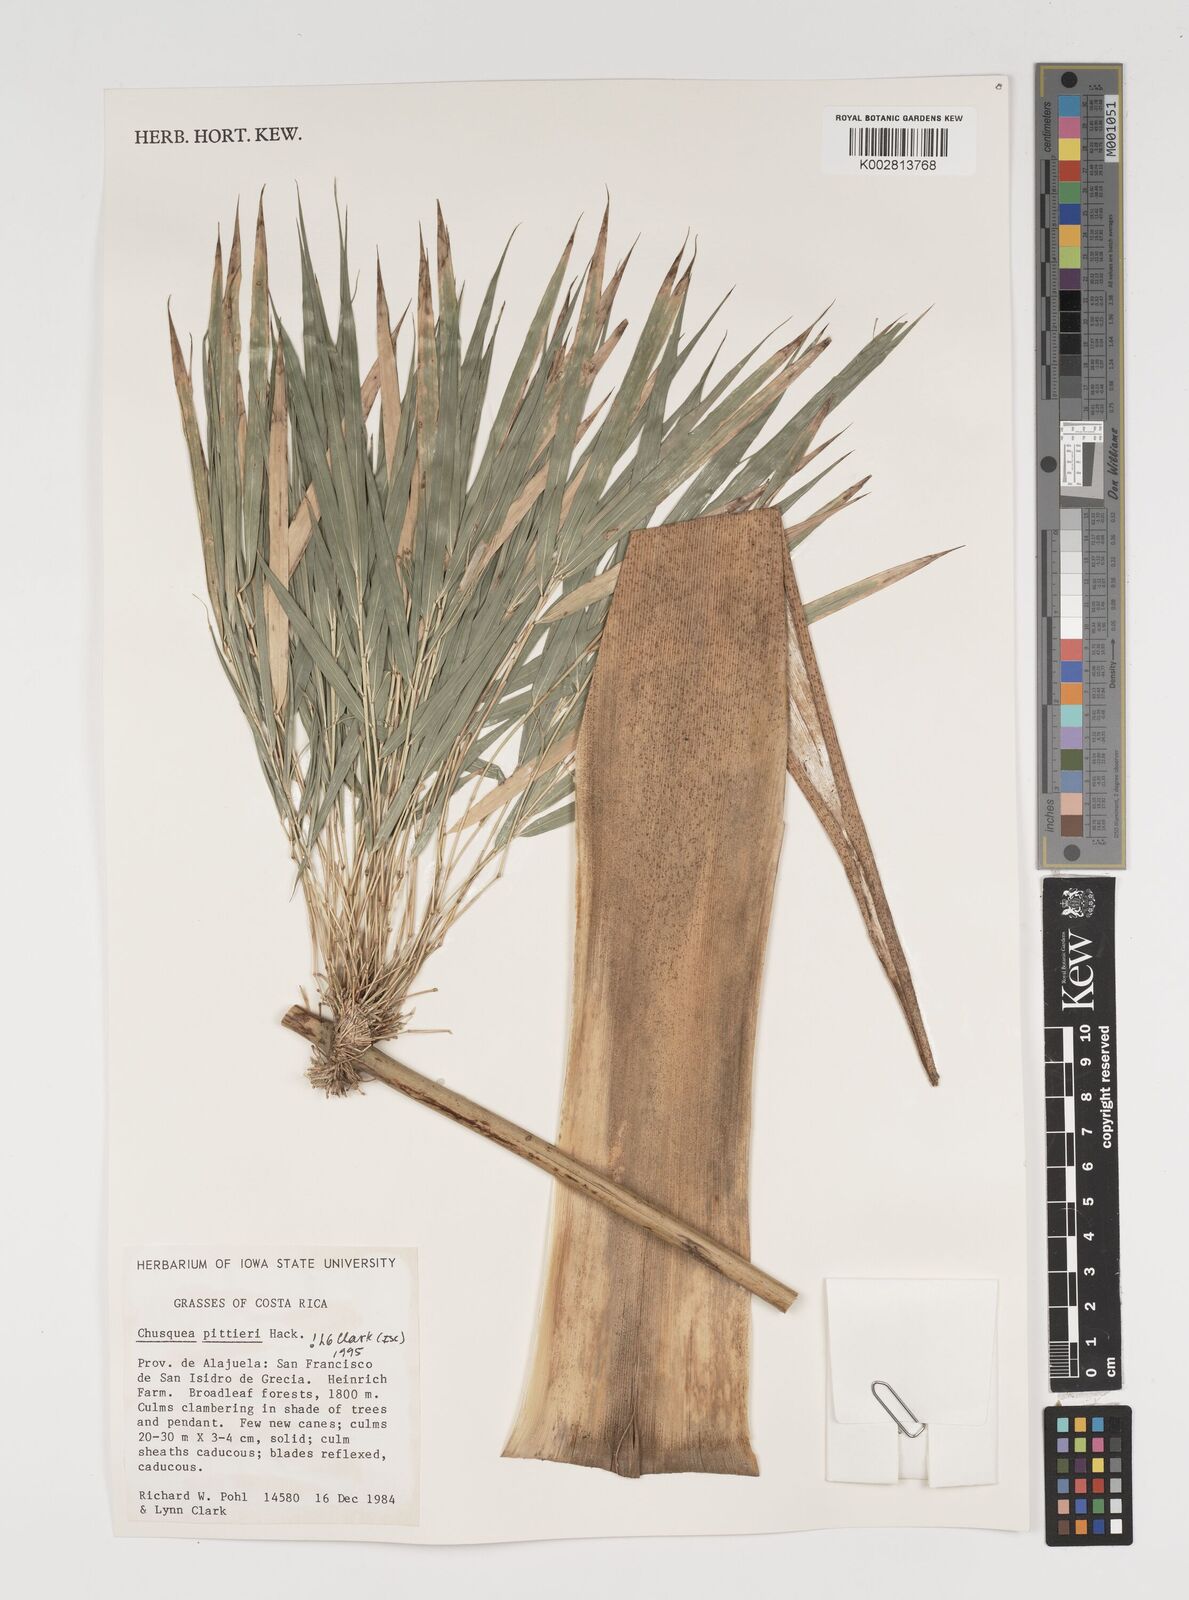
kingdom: Plantae
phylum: Tracheophyta
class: Liliopsida
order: Poales
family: Poaceae
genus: Chusquea
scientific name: Chusquea pittieri
